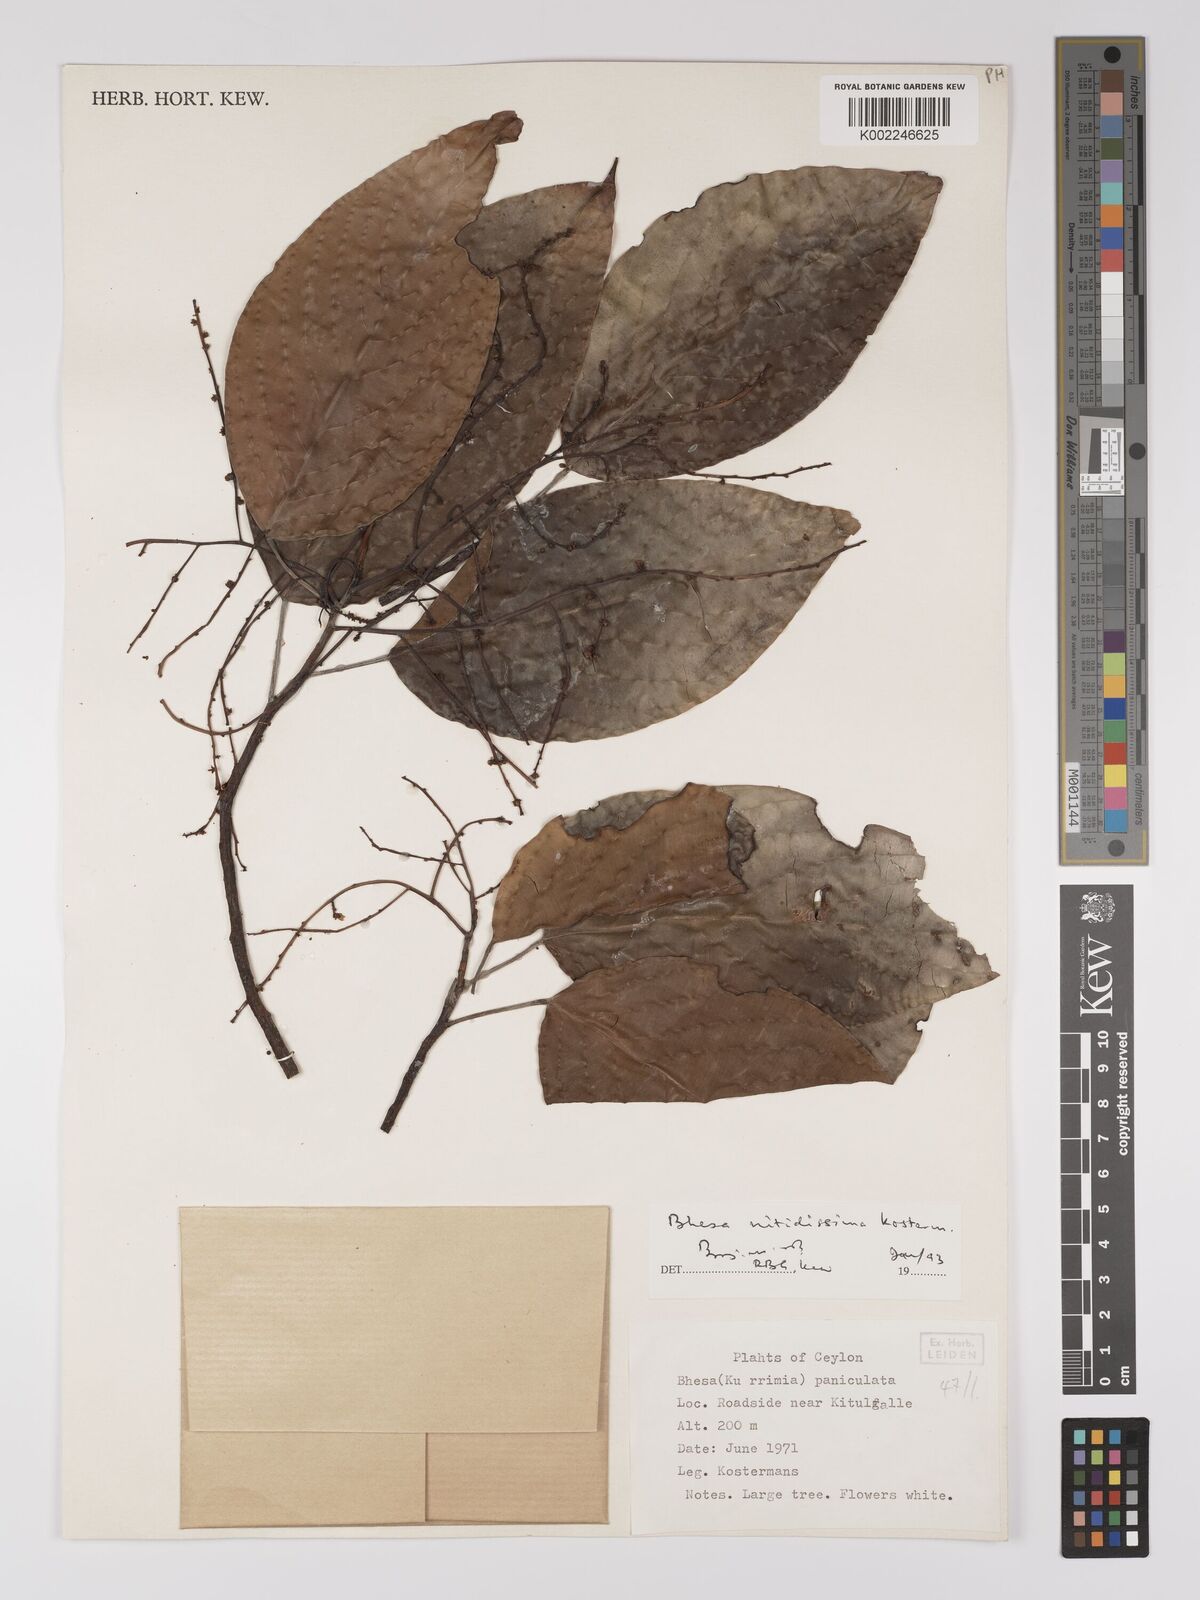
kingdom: Plantae
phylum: Tracheophyta
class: Magnoliopsida
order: Malpighiales
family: Centroplacaceae
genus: Bhesa
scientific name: Bhesa nitidissima
